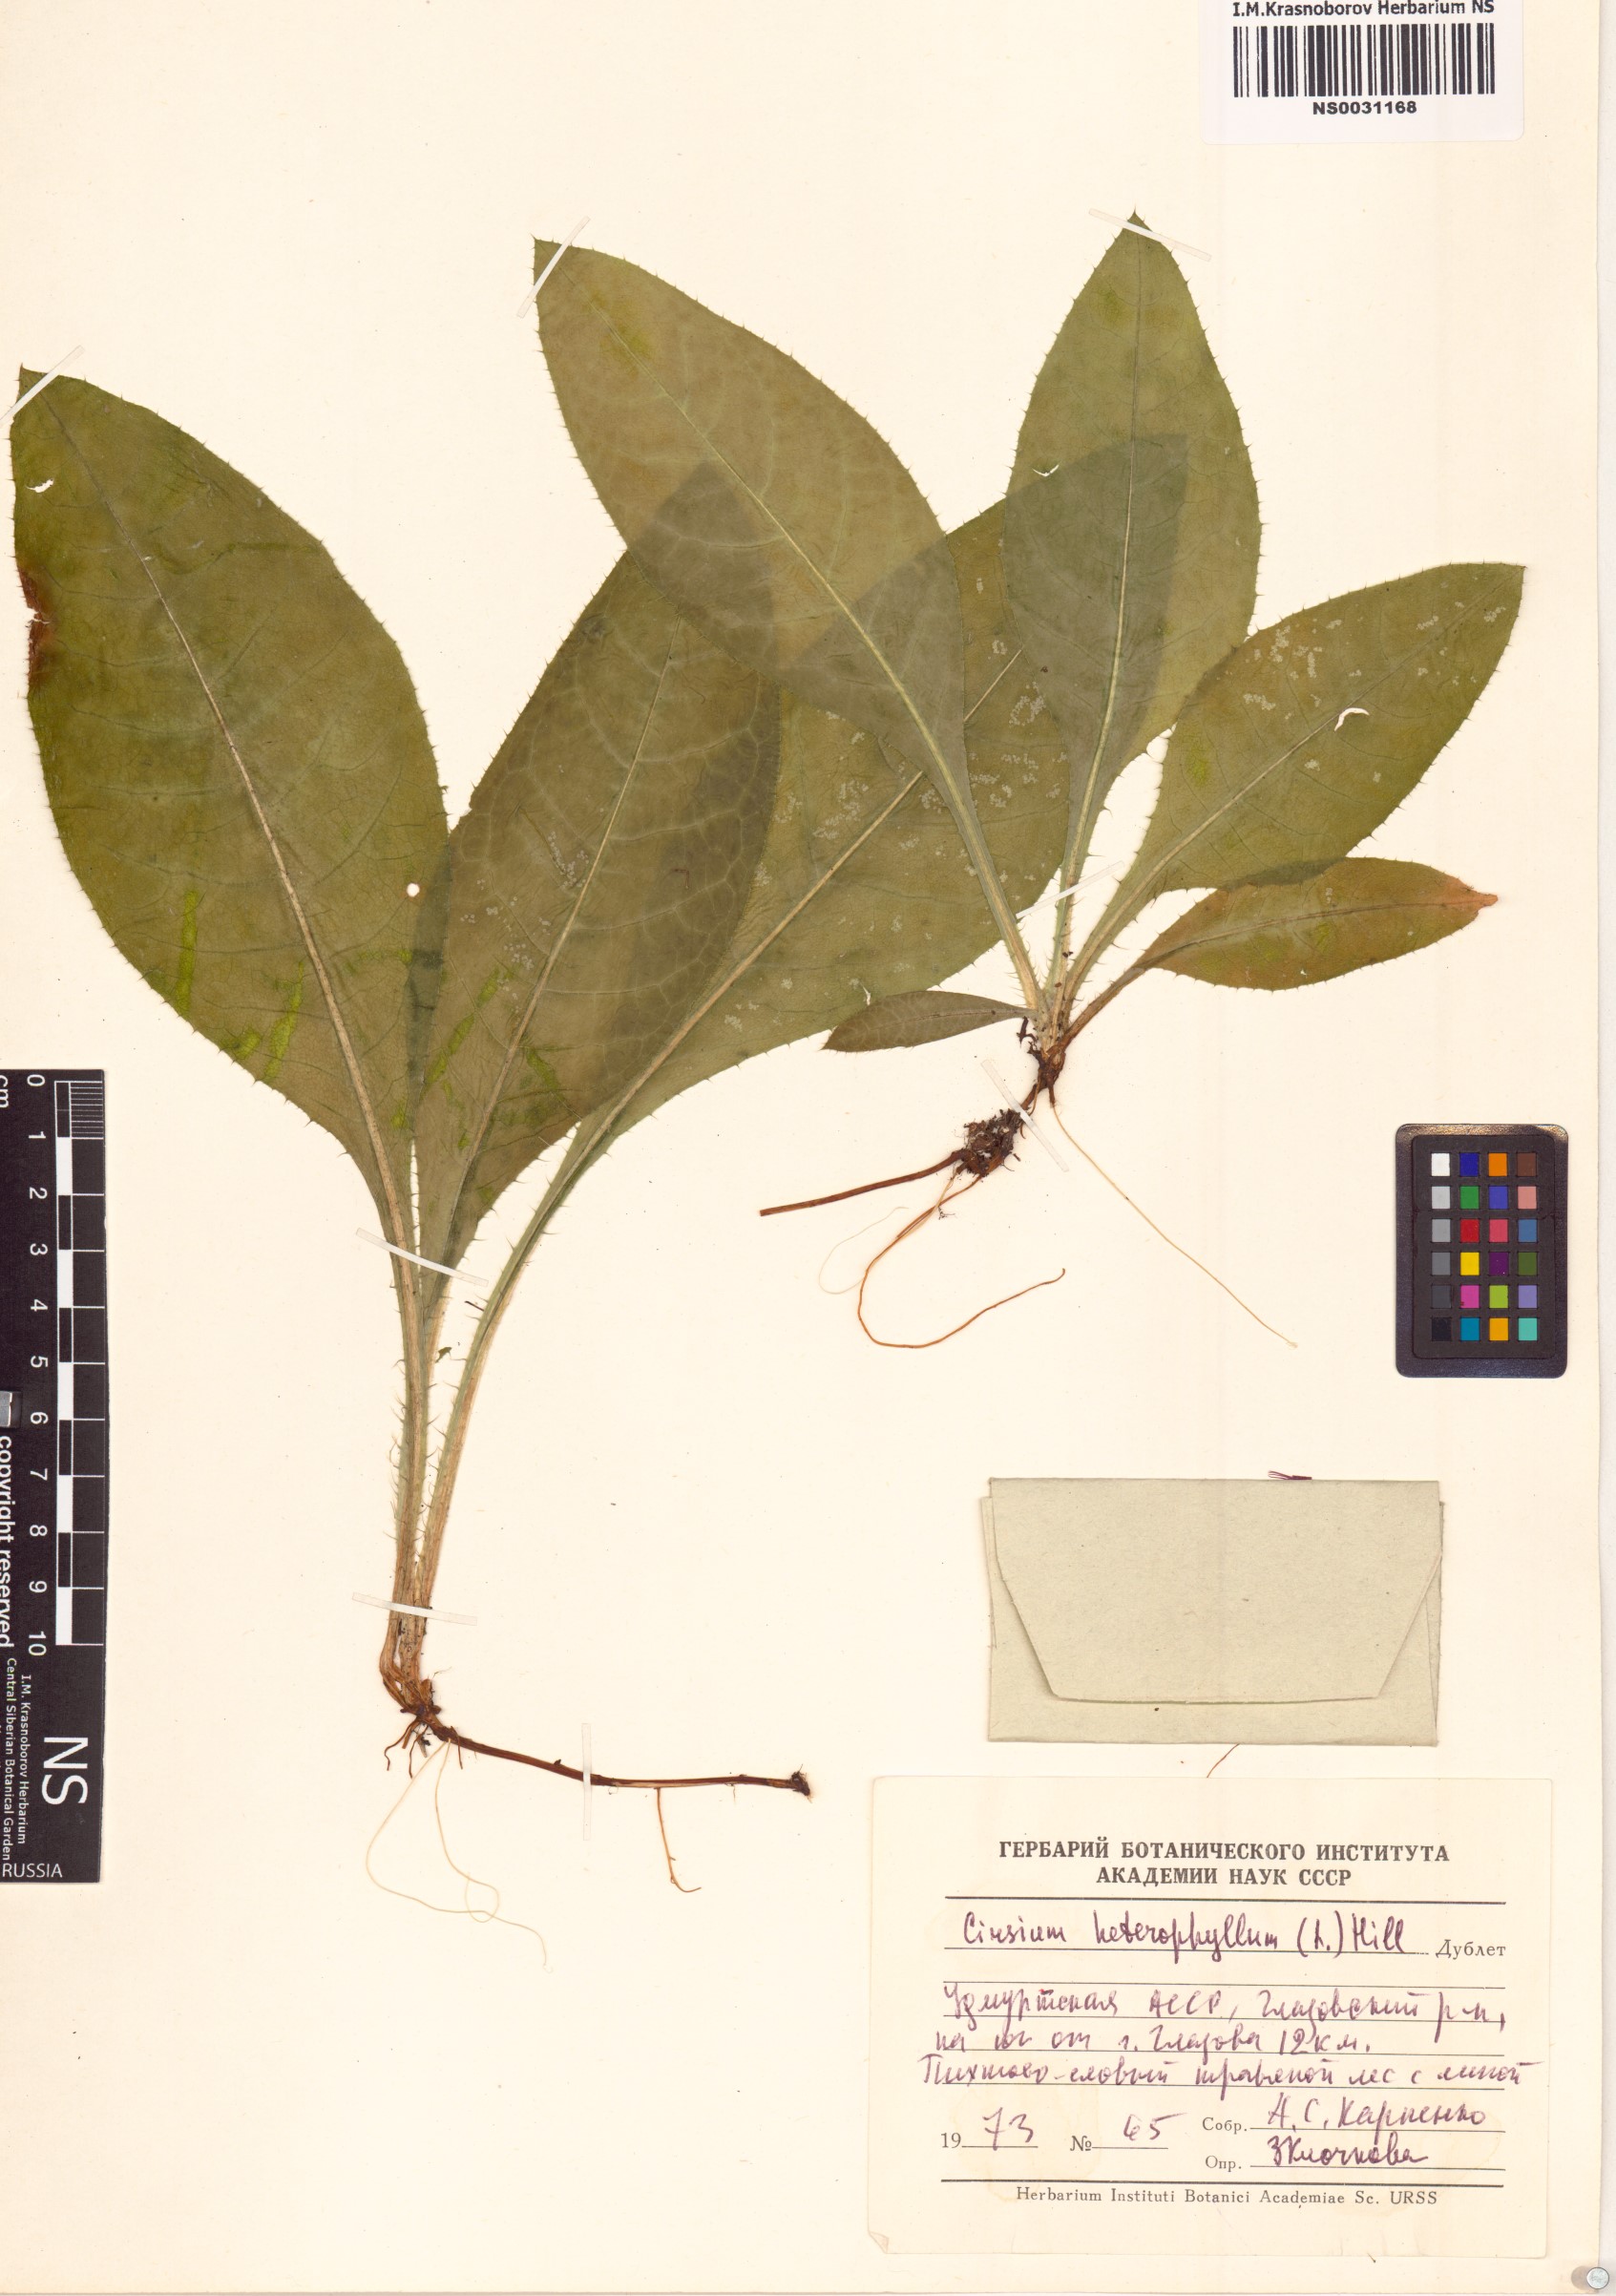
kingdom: Plantae
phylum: Tracheophyta
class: Magnoliopsida
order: Asterales
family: Asteraceae
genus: Cirsium
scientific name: Cirsium heterophyllum
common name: Melancholy thistle
